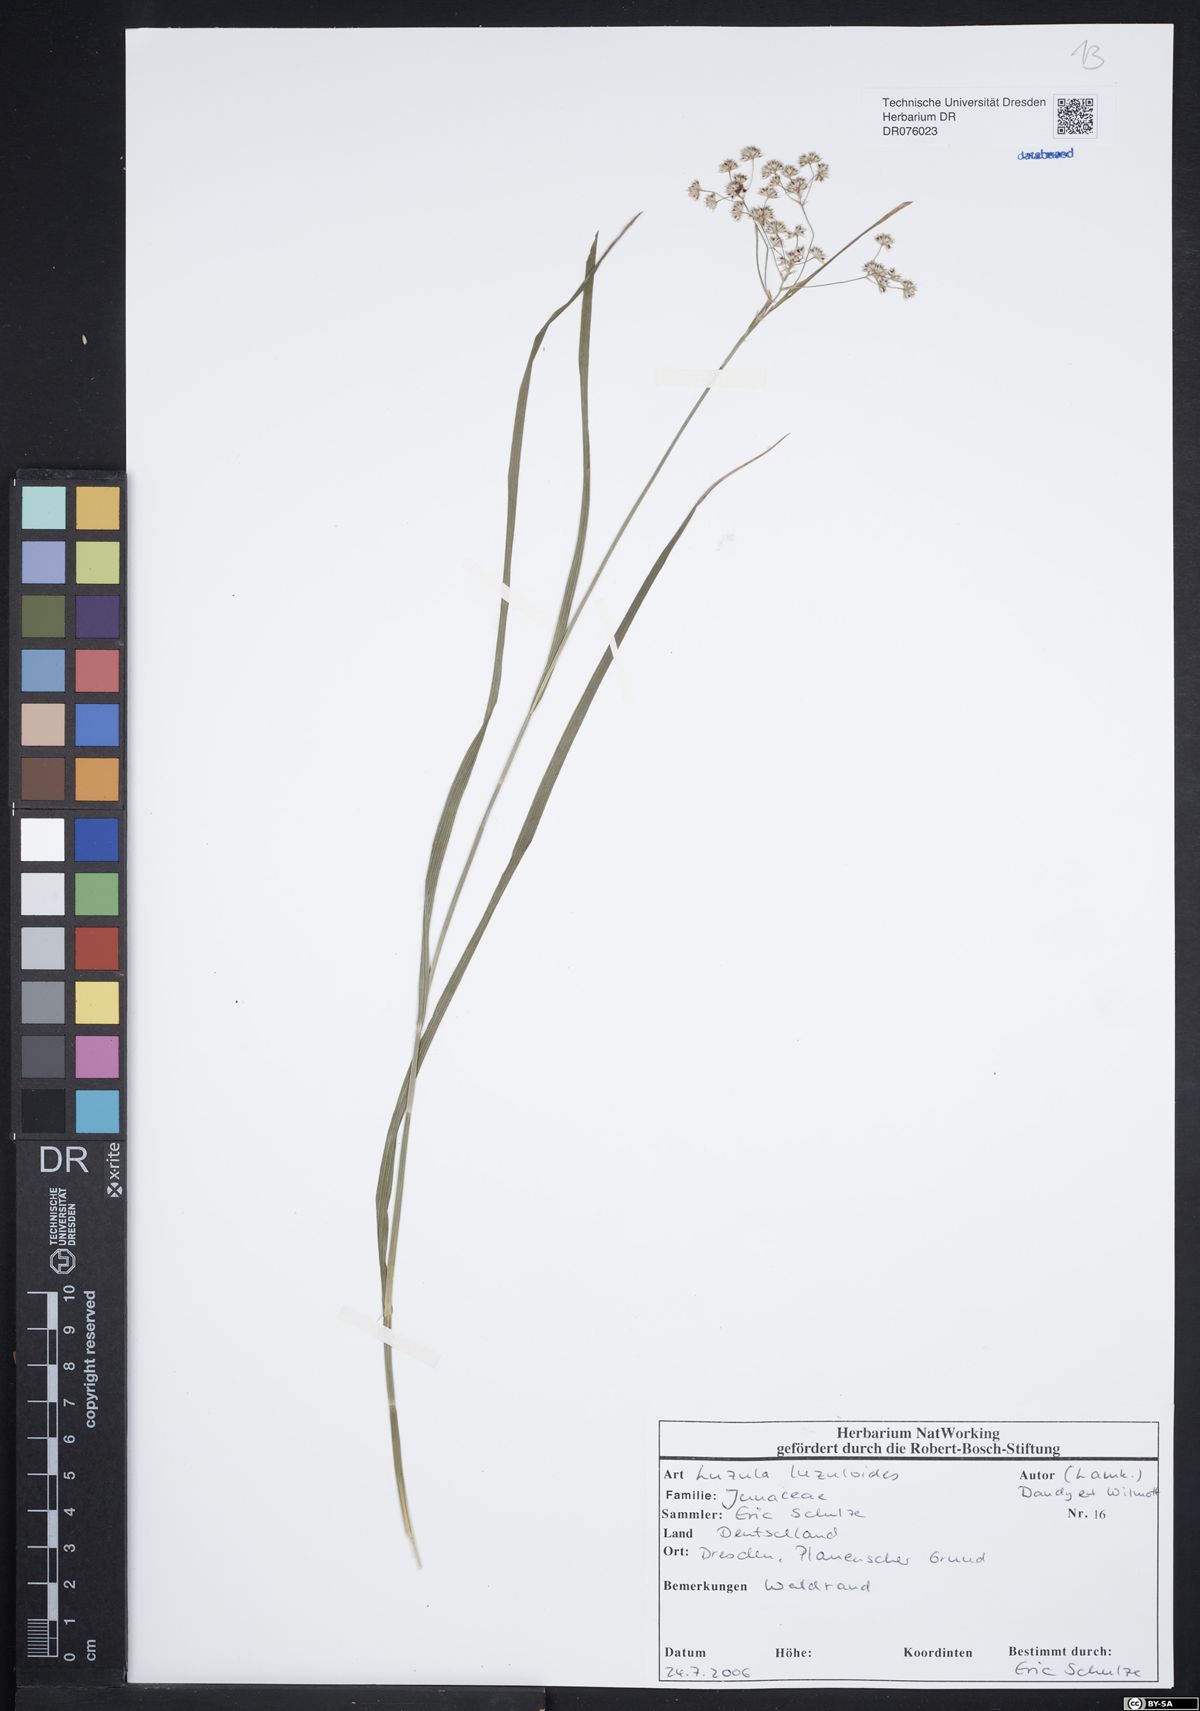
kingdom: Plantae
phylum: Tracheophyta
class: Liliopsida
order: Poales
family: Juncaceae
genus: Luzula
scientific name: Luzula luzuloides
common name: White wood-rush
